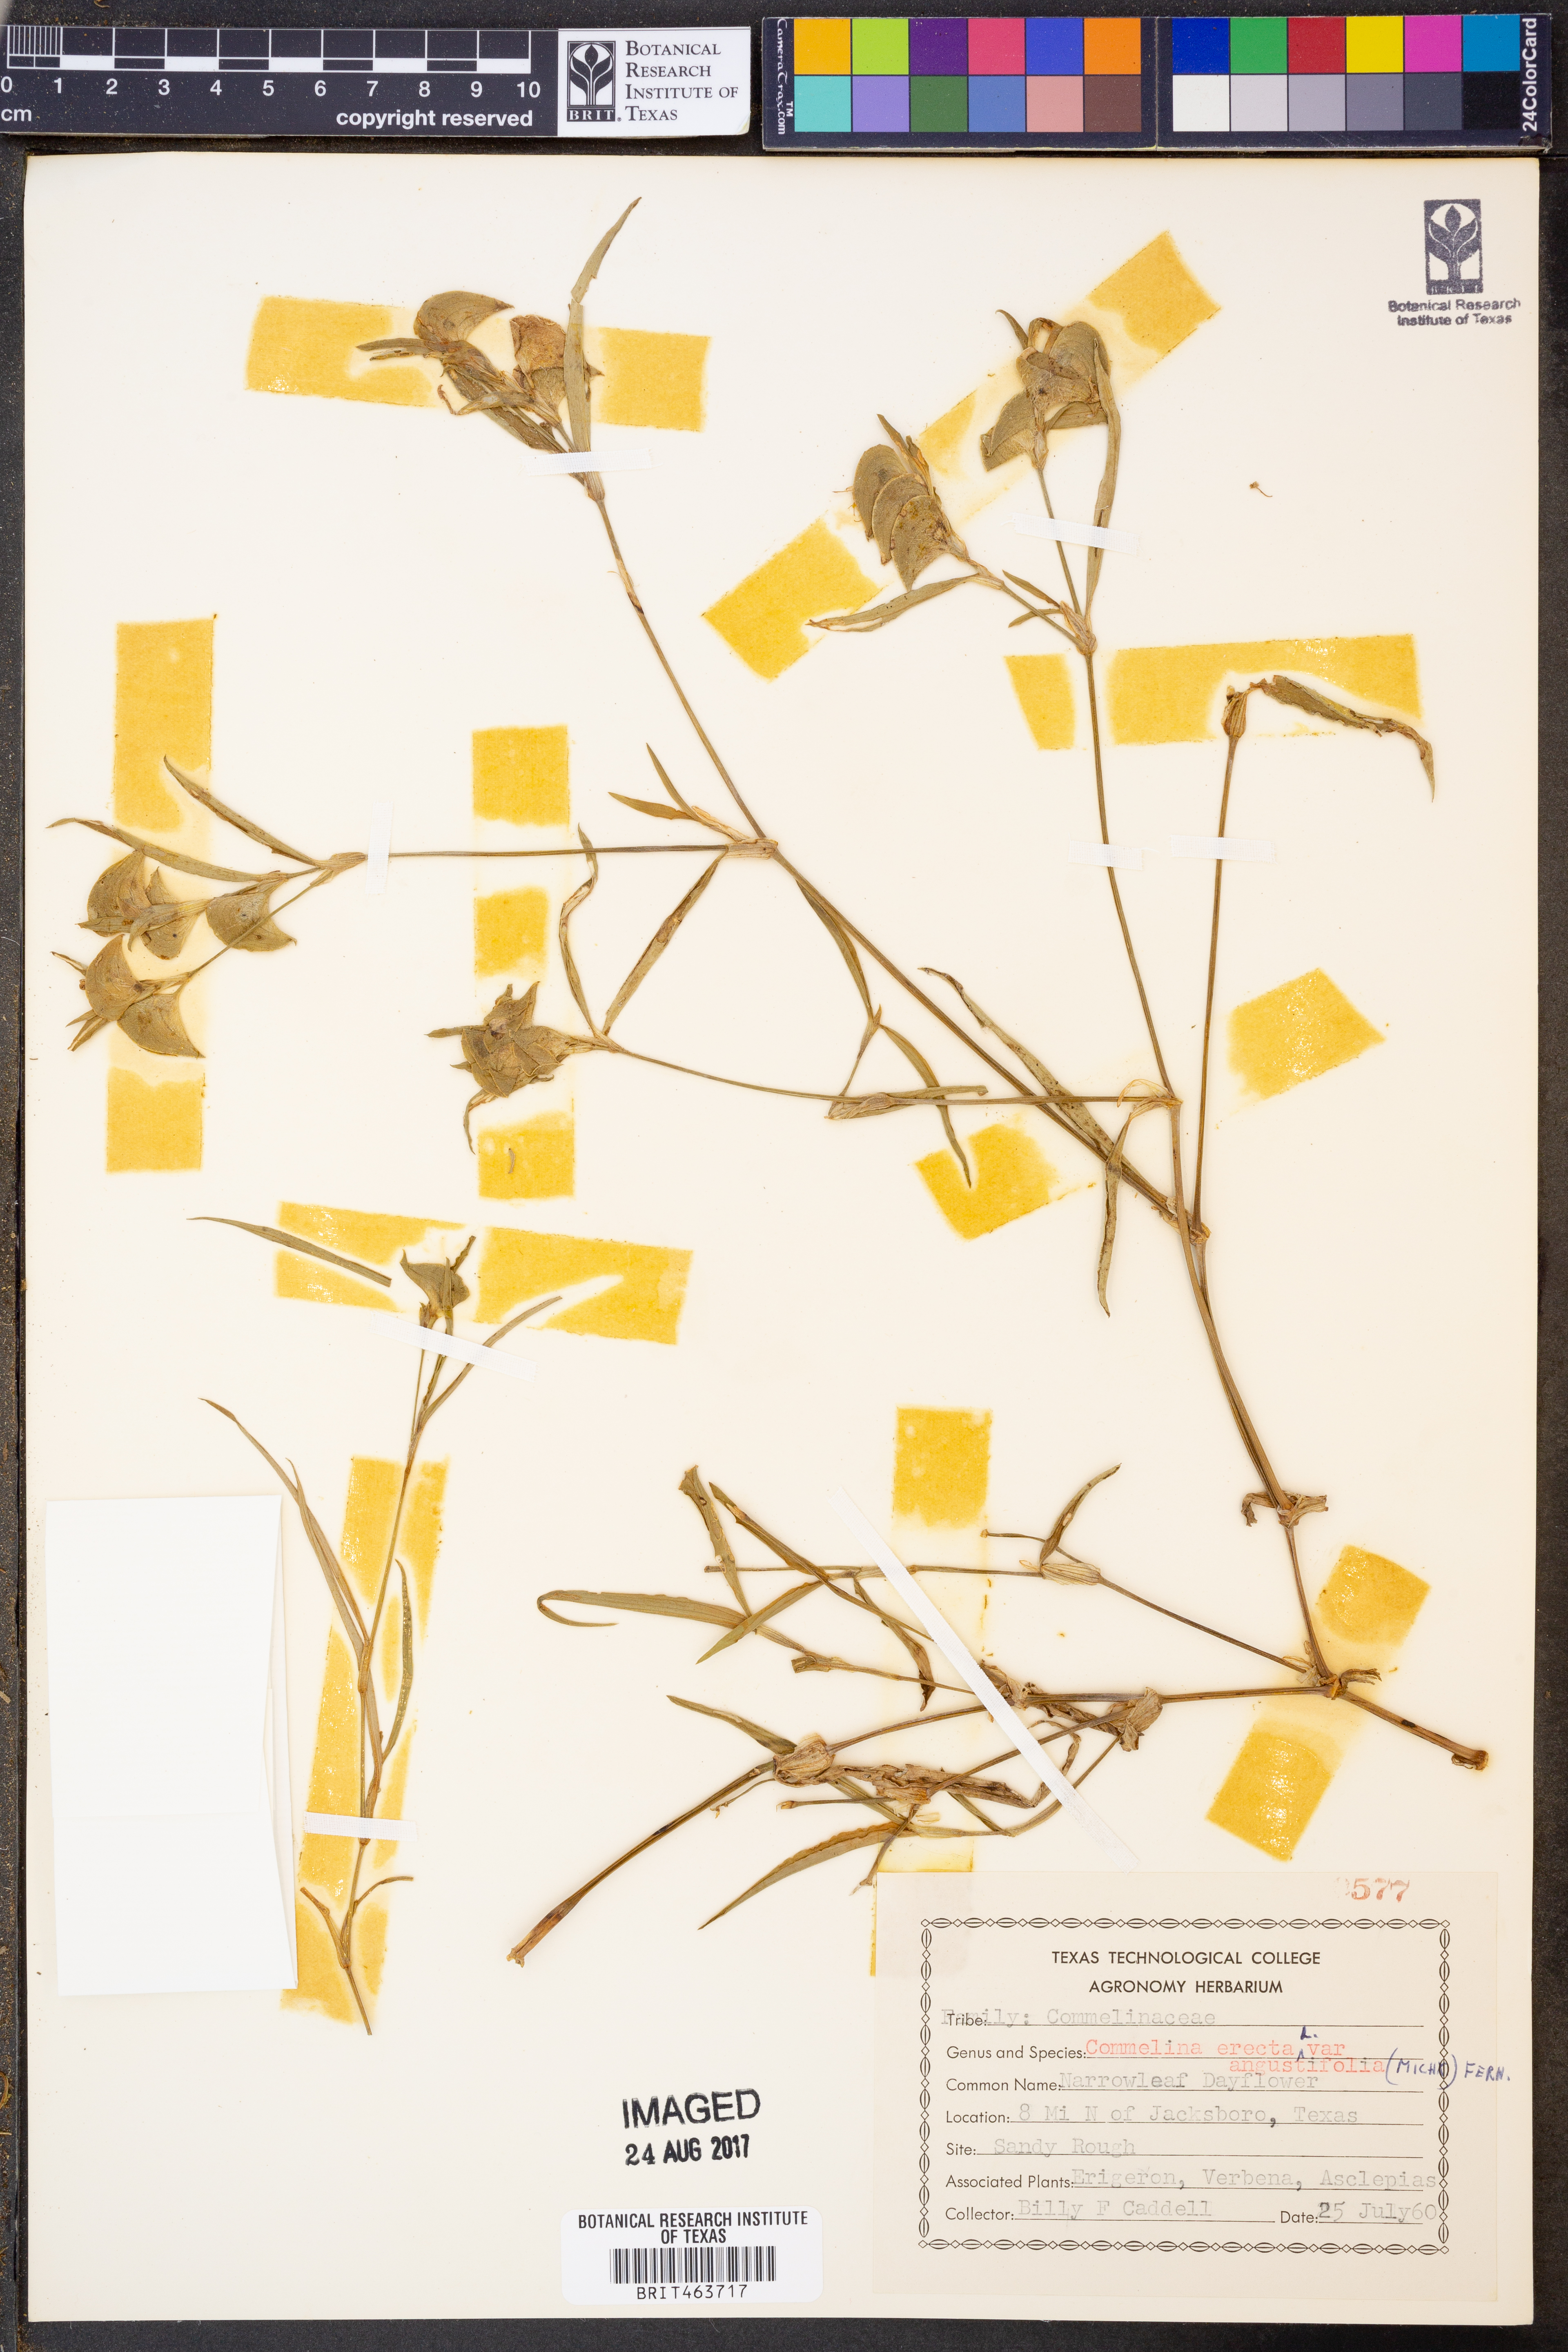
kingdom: Plantae
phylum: Tracheophyta
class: Liliopsida
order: Commelinales
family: Commelinaceae
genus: Commelina
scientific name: Commelina erecta
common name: Blousel blommetjie
